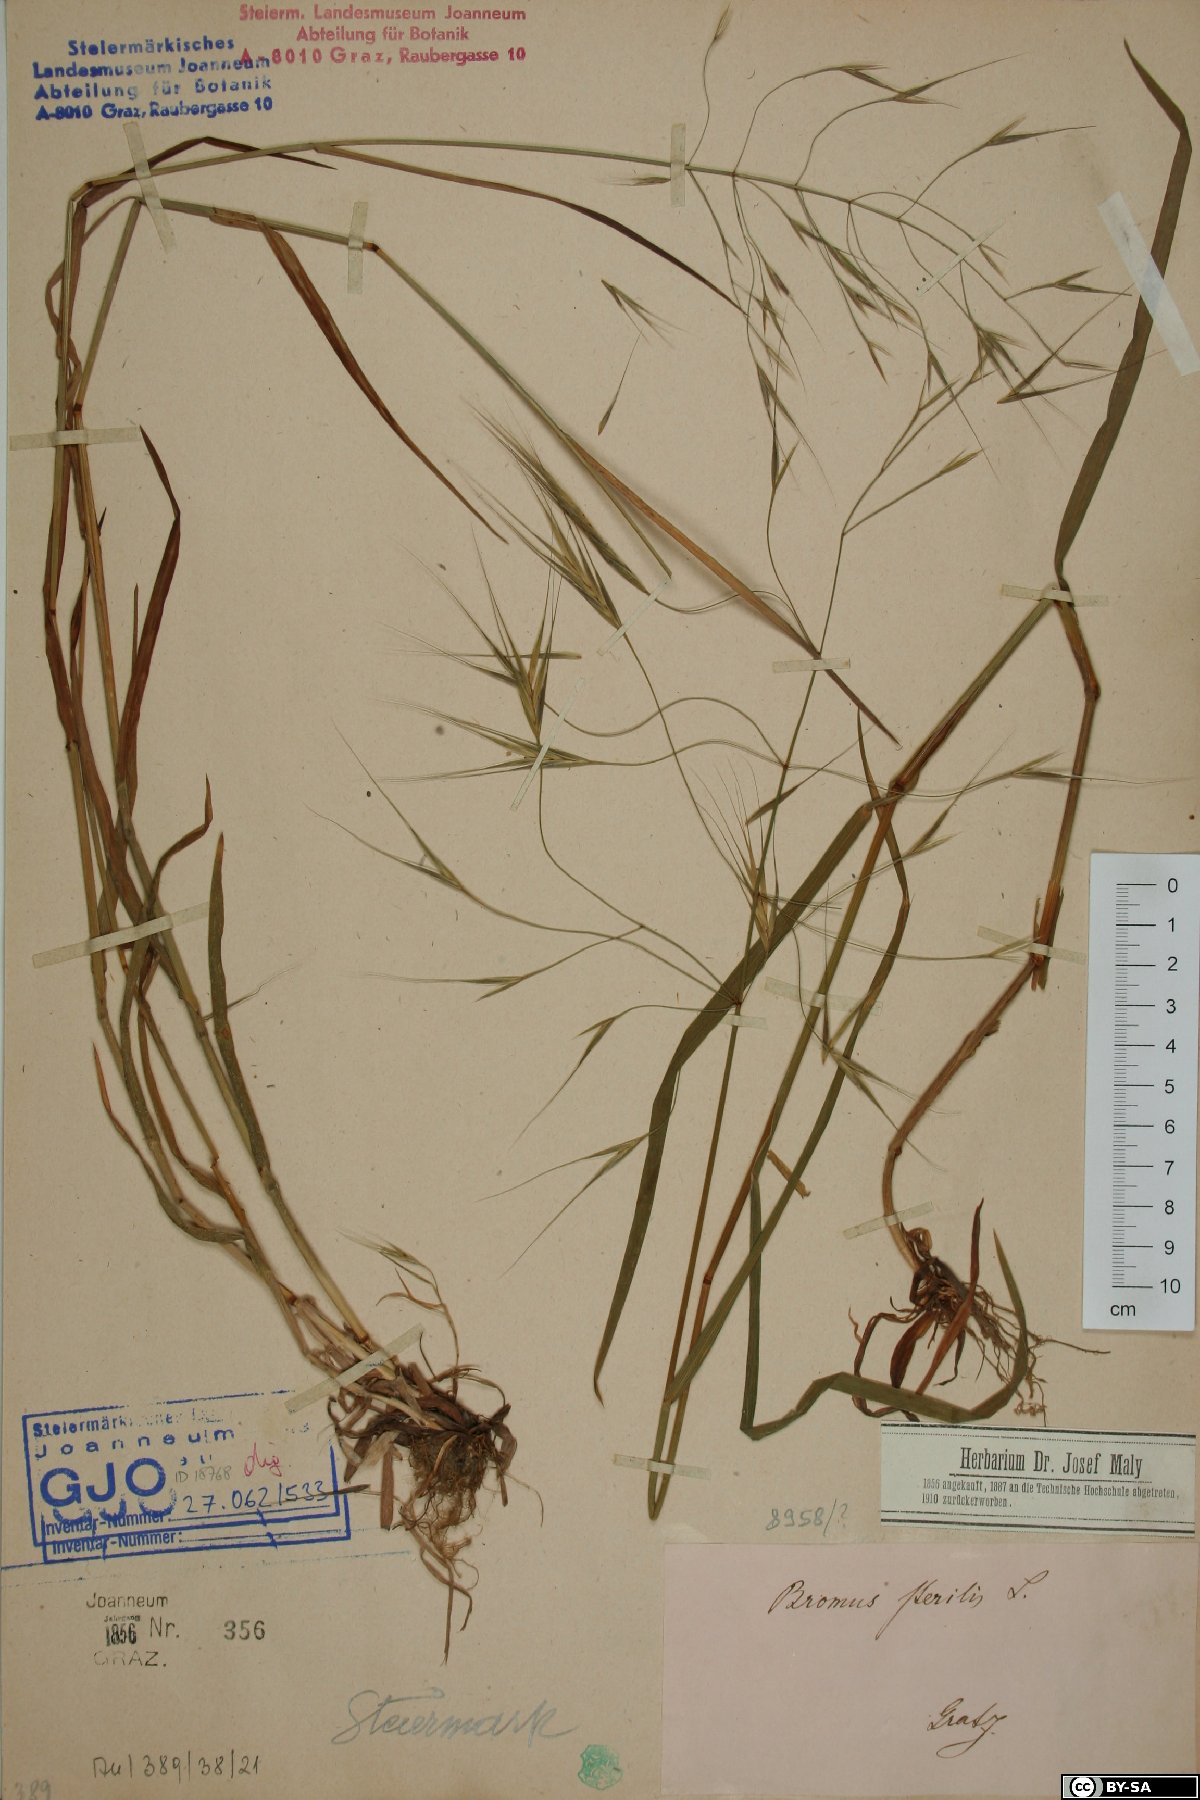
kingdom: Plantae
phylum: Tracheophyta
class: Liliopsida
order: Poales
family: Poaceae
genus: Bromus
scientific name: Bromus sterilis
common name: Poverty brome
